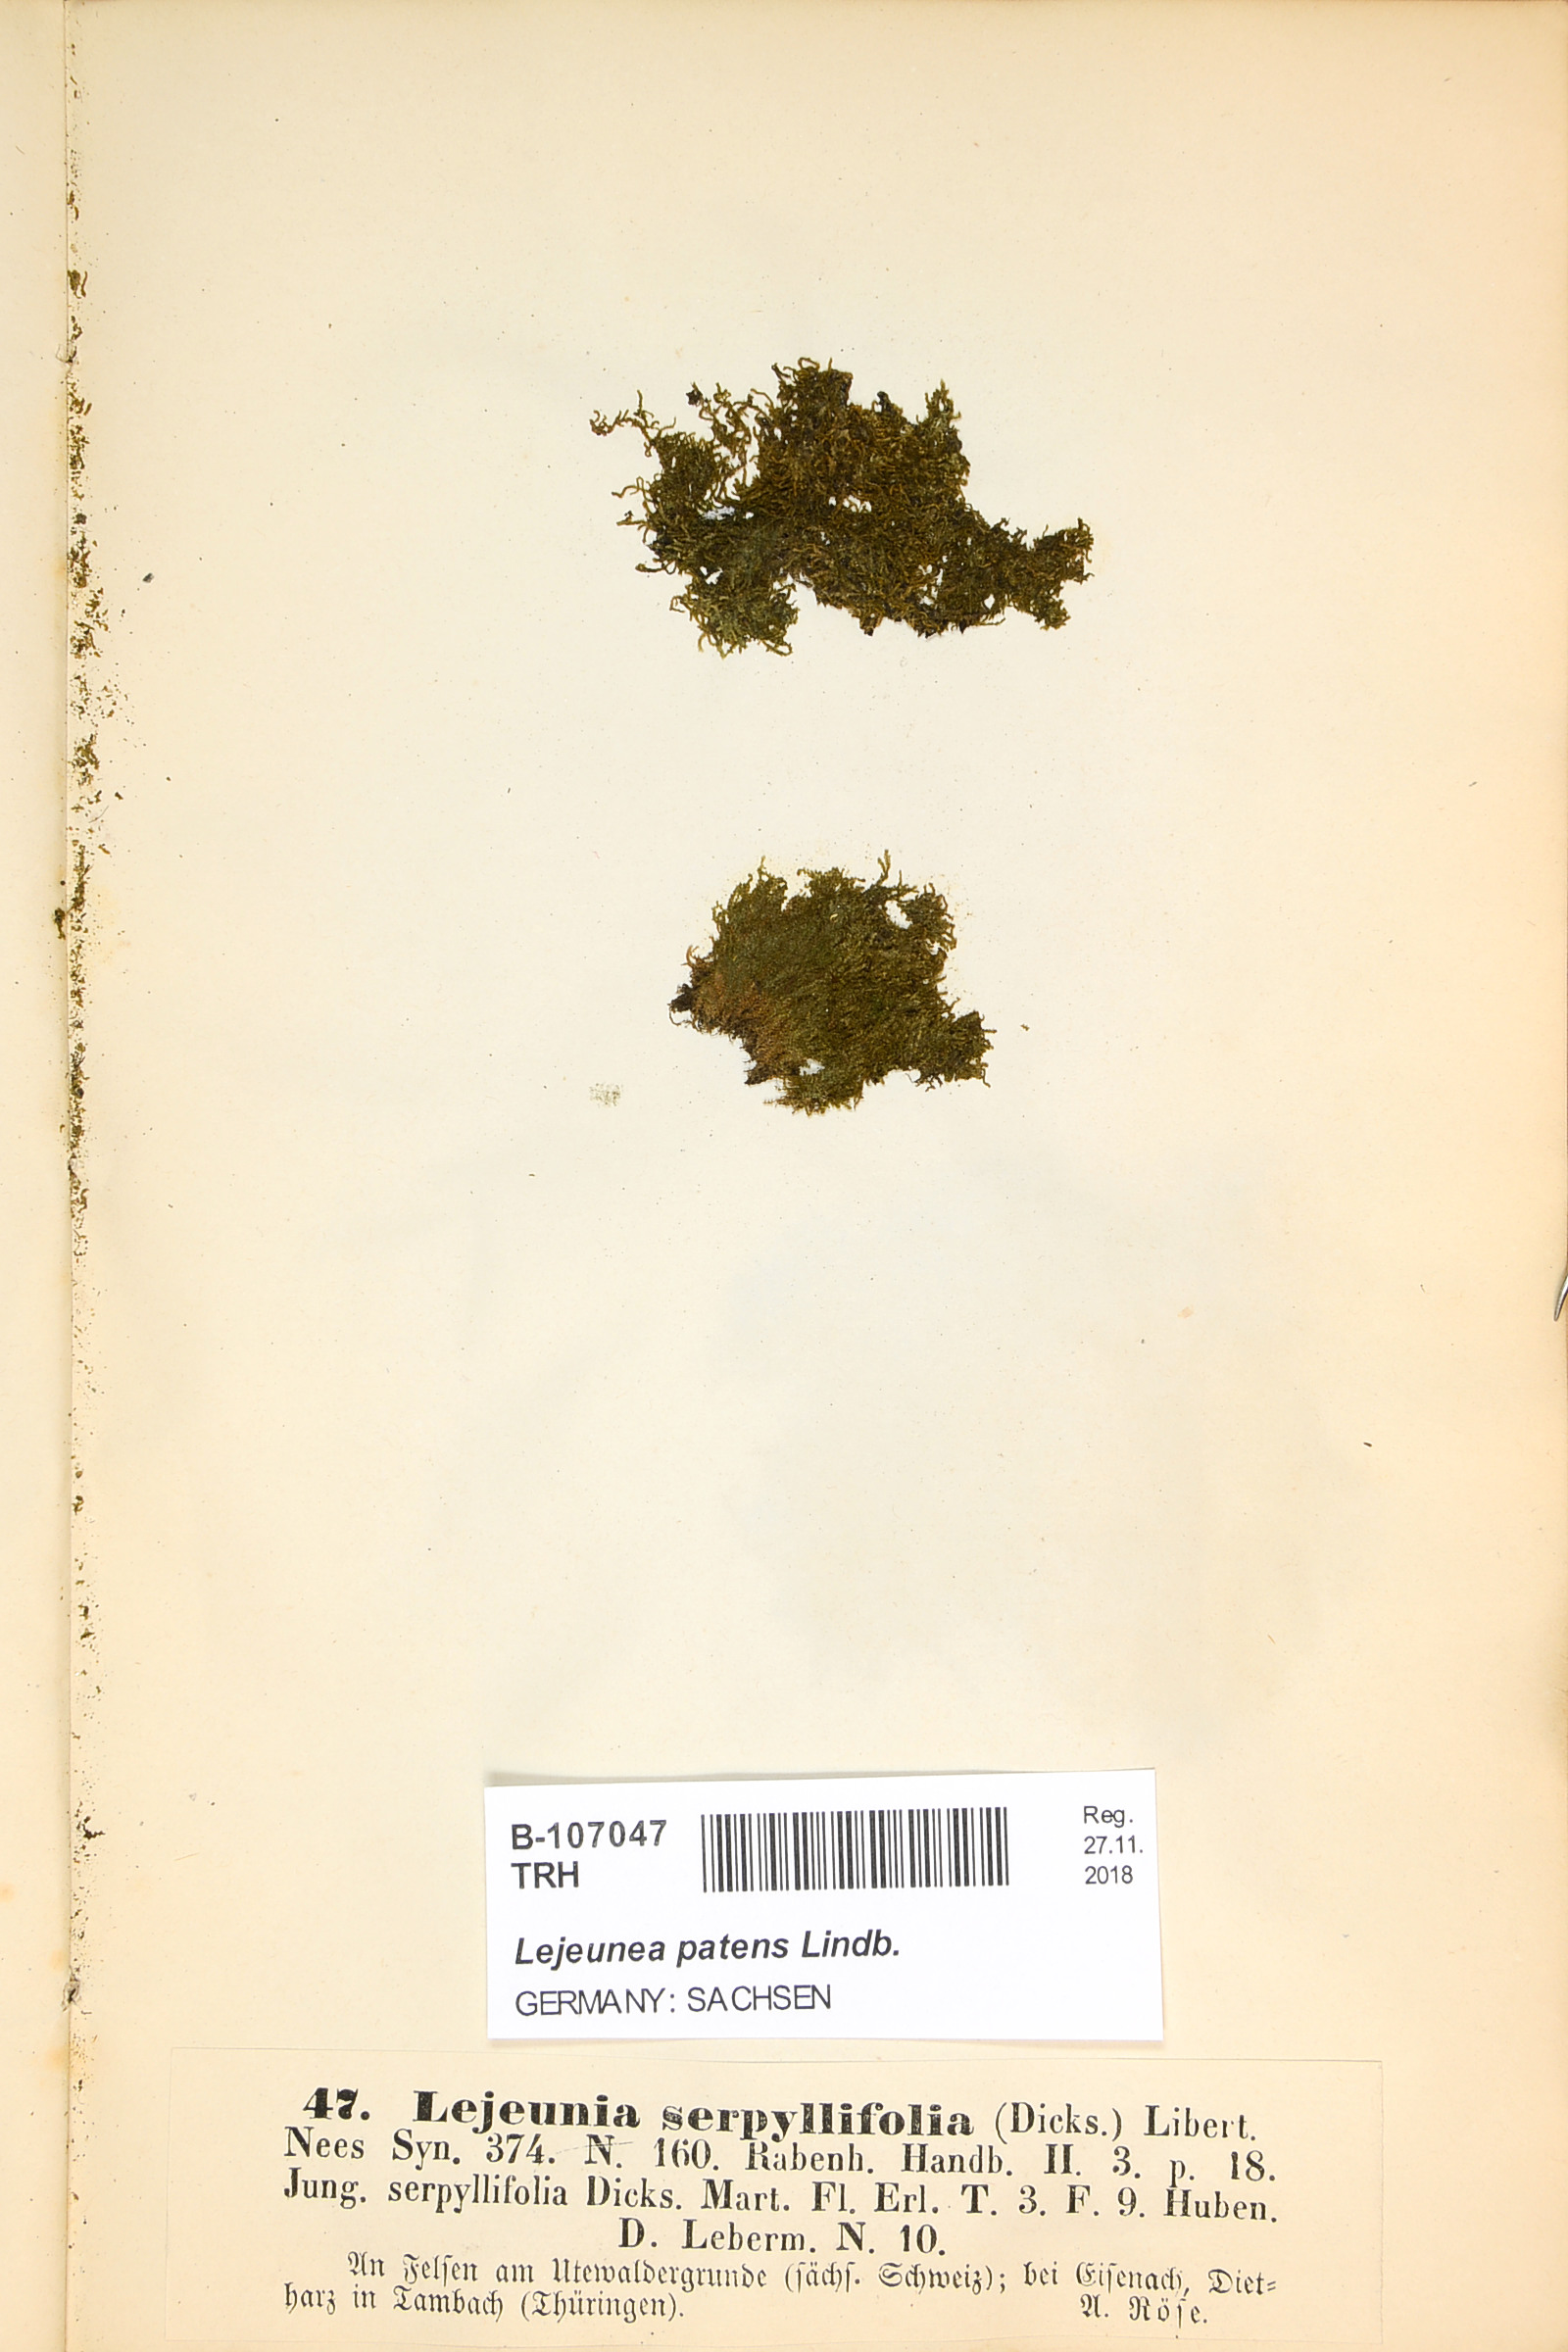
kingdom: Plantae
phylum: Marchantiophyta
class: Jungermanniopsida
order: Porellales
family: Lejeuneaceae
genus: Lejeunea
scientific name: Lejeunea patens
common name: Pearl pouncewort
